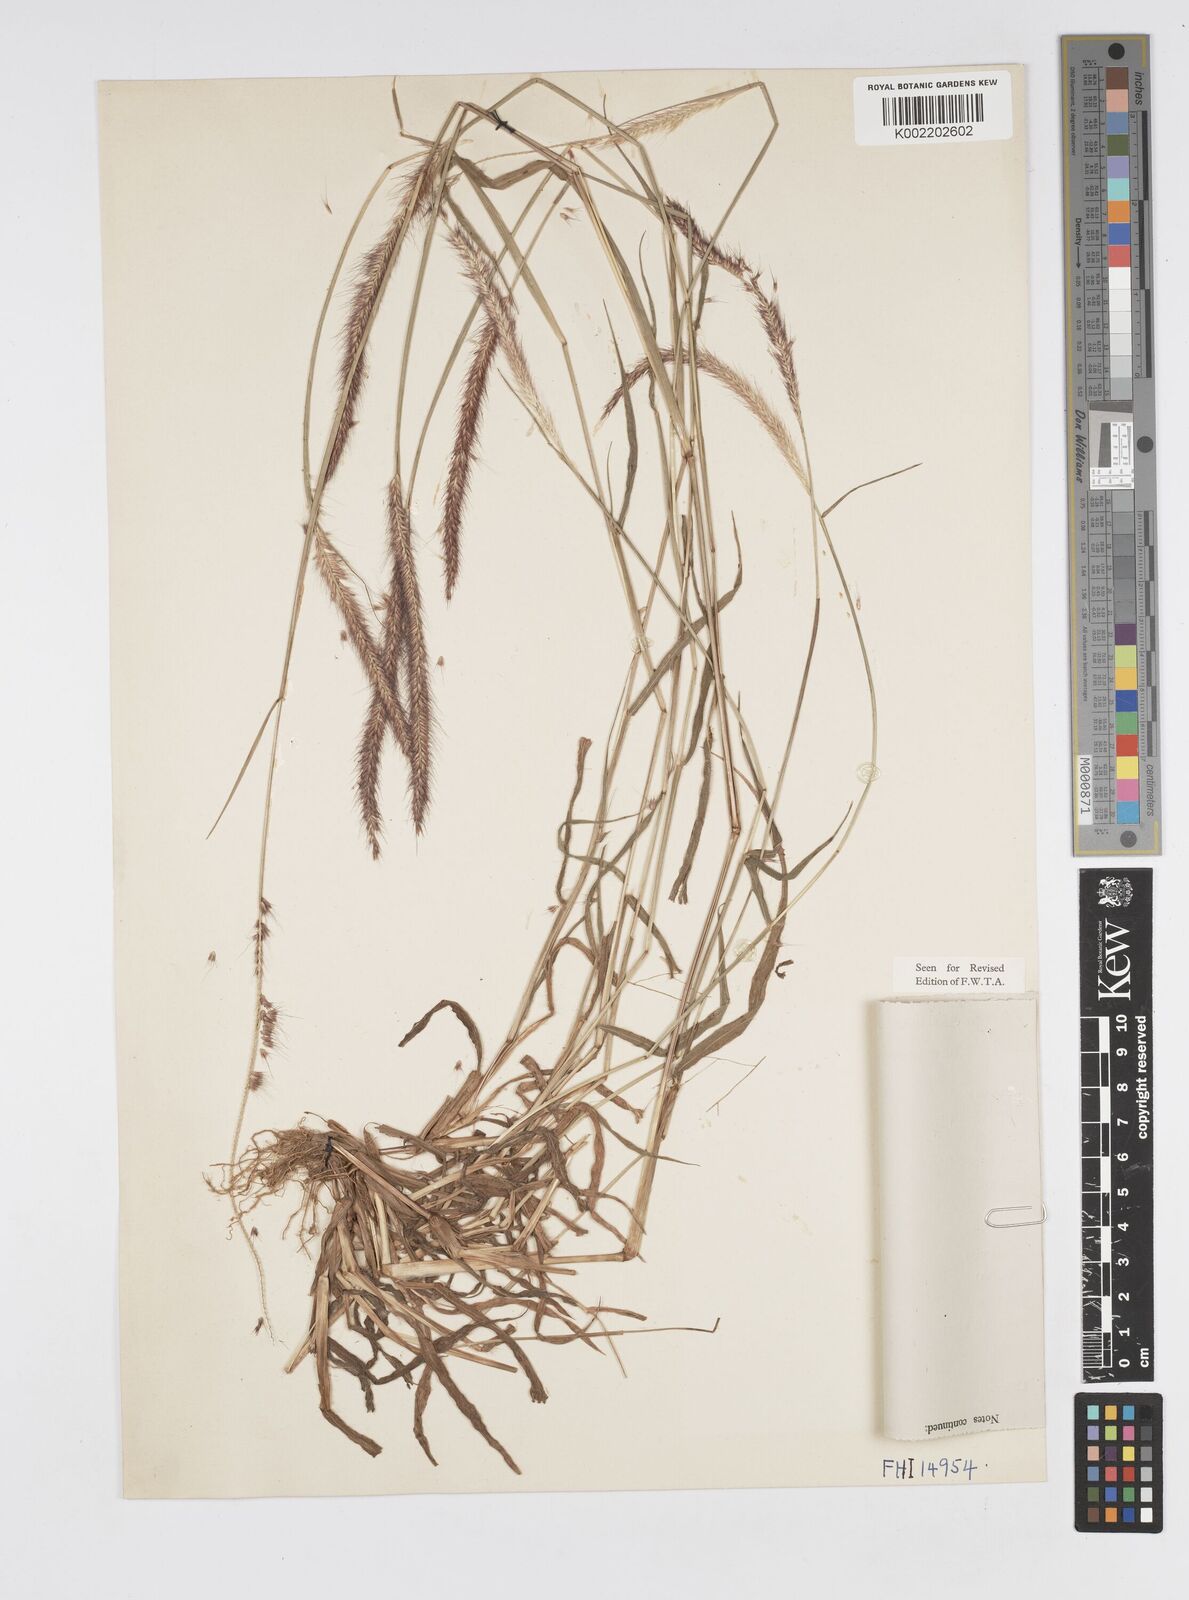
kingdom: Plantae
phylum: Tracheophyta
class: Liliopsida
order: Poales
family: Poaceae
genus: Setaria
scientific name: Setaria parviflora
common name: Knotroot bristle-grass
